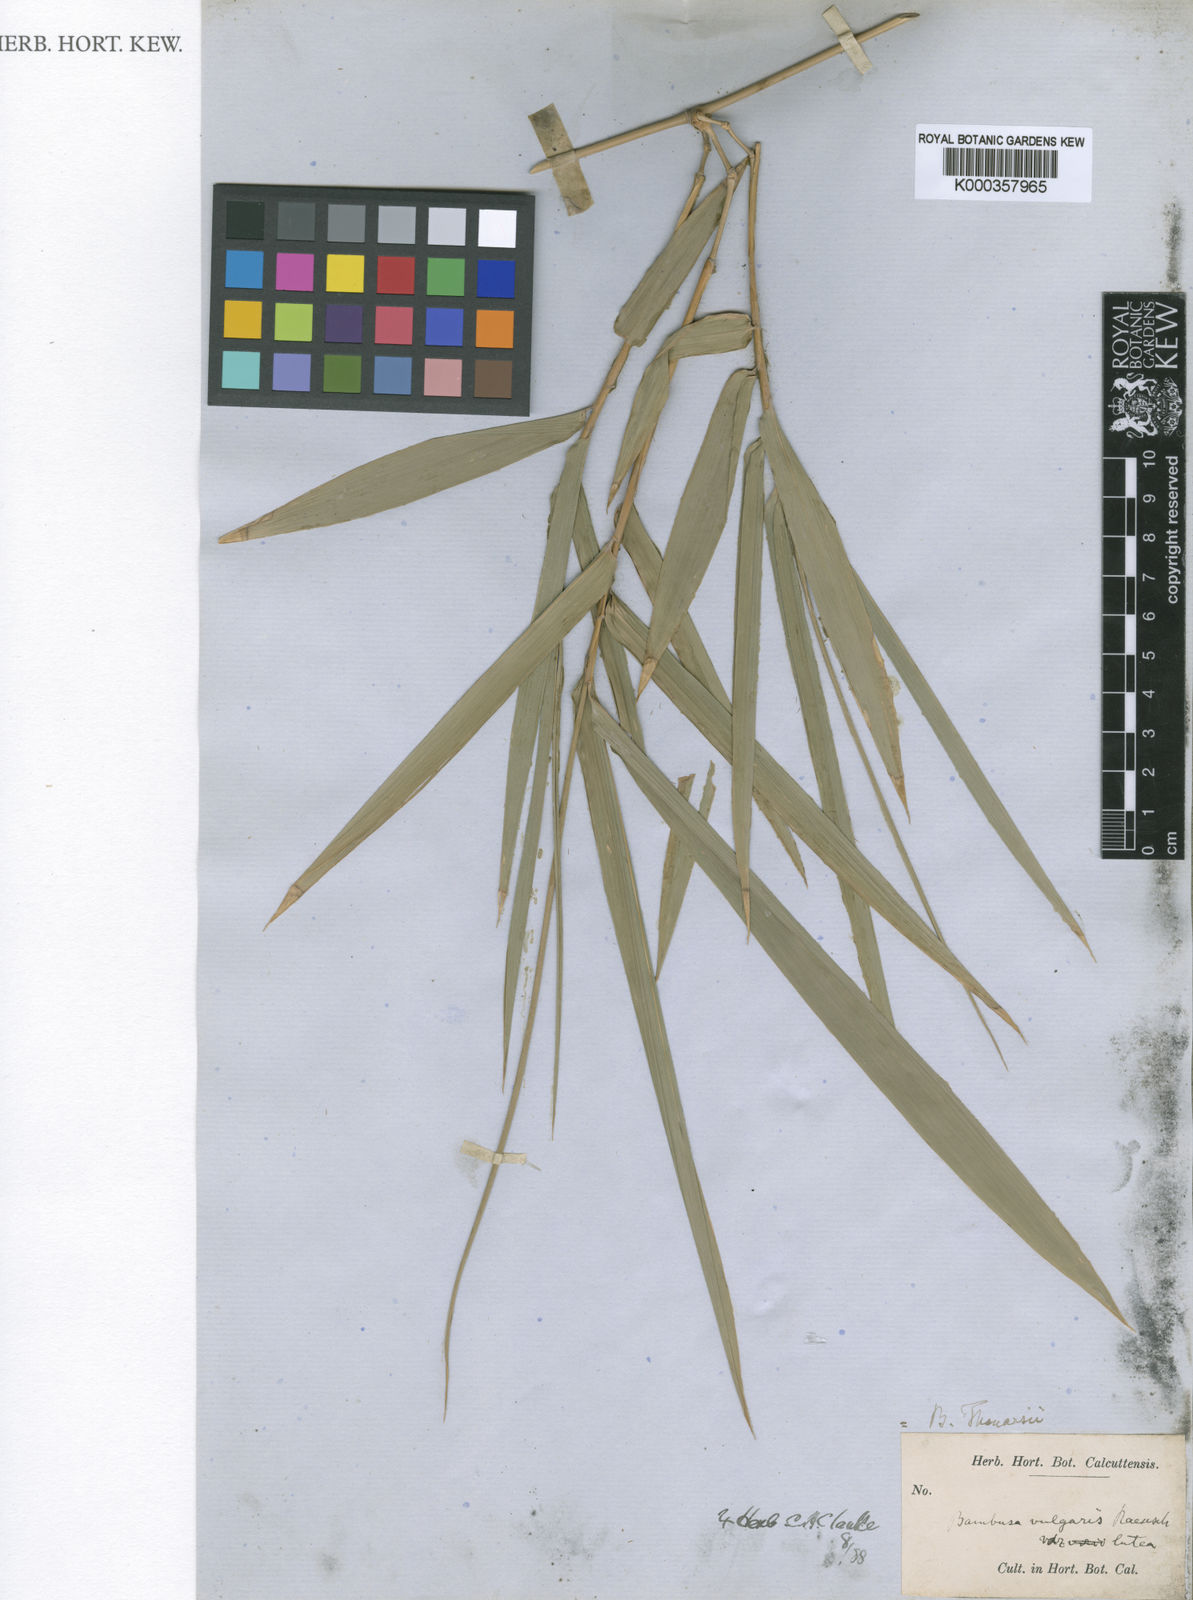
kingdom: Plantae
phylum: Tracheophyta
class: Liliopsida
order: Poales
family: Poaceae
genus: Bambusa
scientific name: Bambusa vulgaris
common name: Common bamboo
